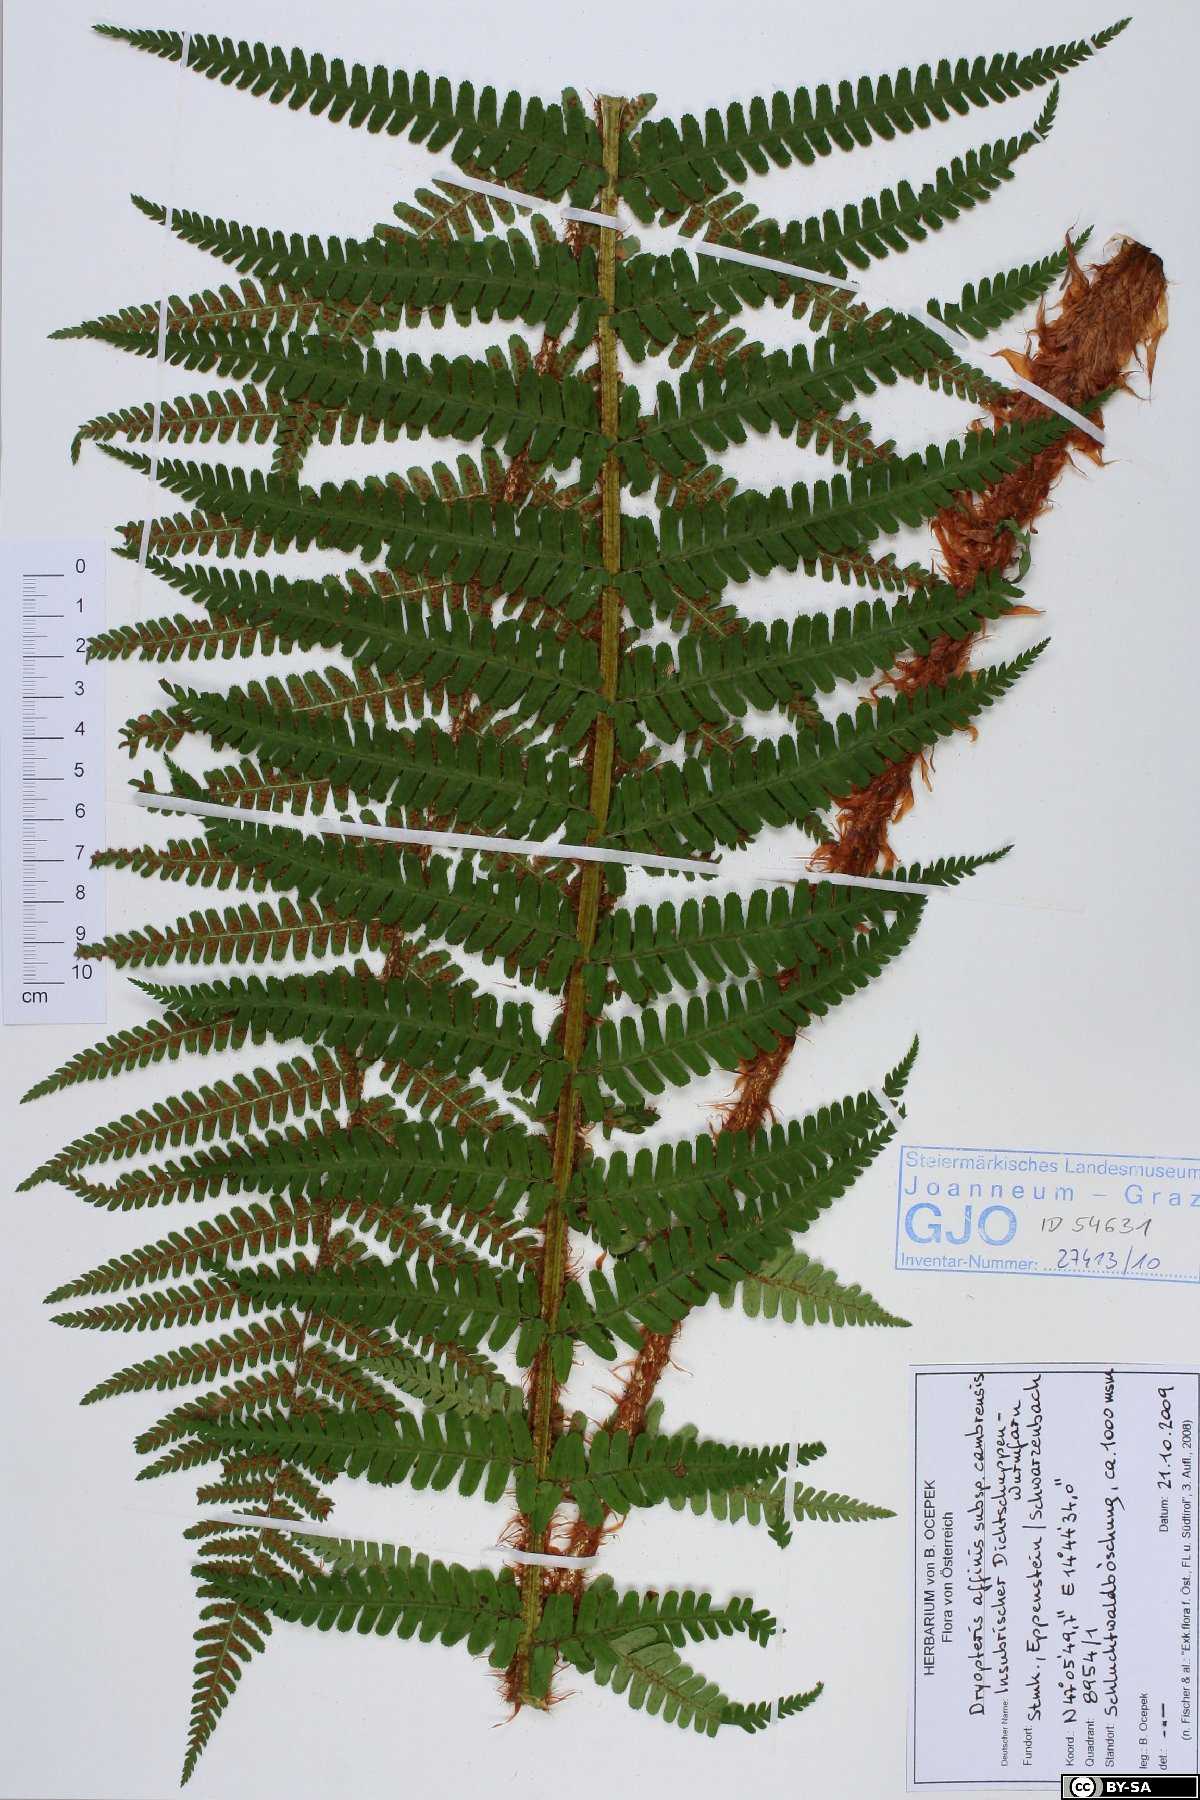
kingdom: Plantae
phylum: Tracheophyta
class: Polypodiopsida
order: Polypodiales
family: Dryopteridaceae
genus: Dryopteris
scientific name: Dryopteris cambrensis
